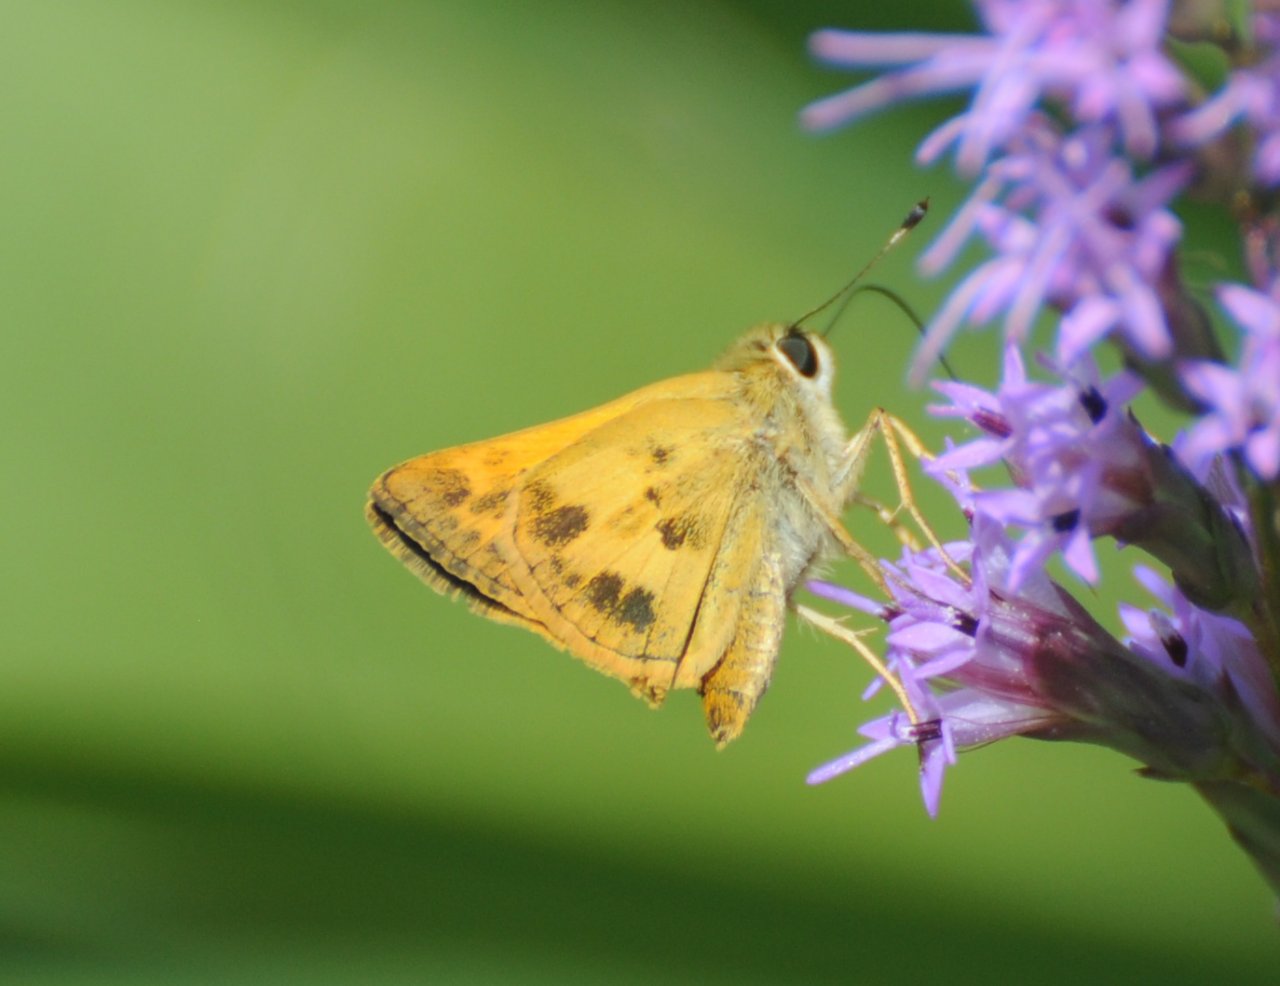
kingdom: Animalia
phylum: Arthropoda
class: Insecta
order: Lepidoptera
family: Hesperiidae
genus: Polites
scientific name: Polites vibex
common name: Whirlabout
